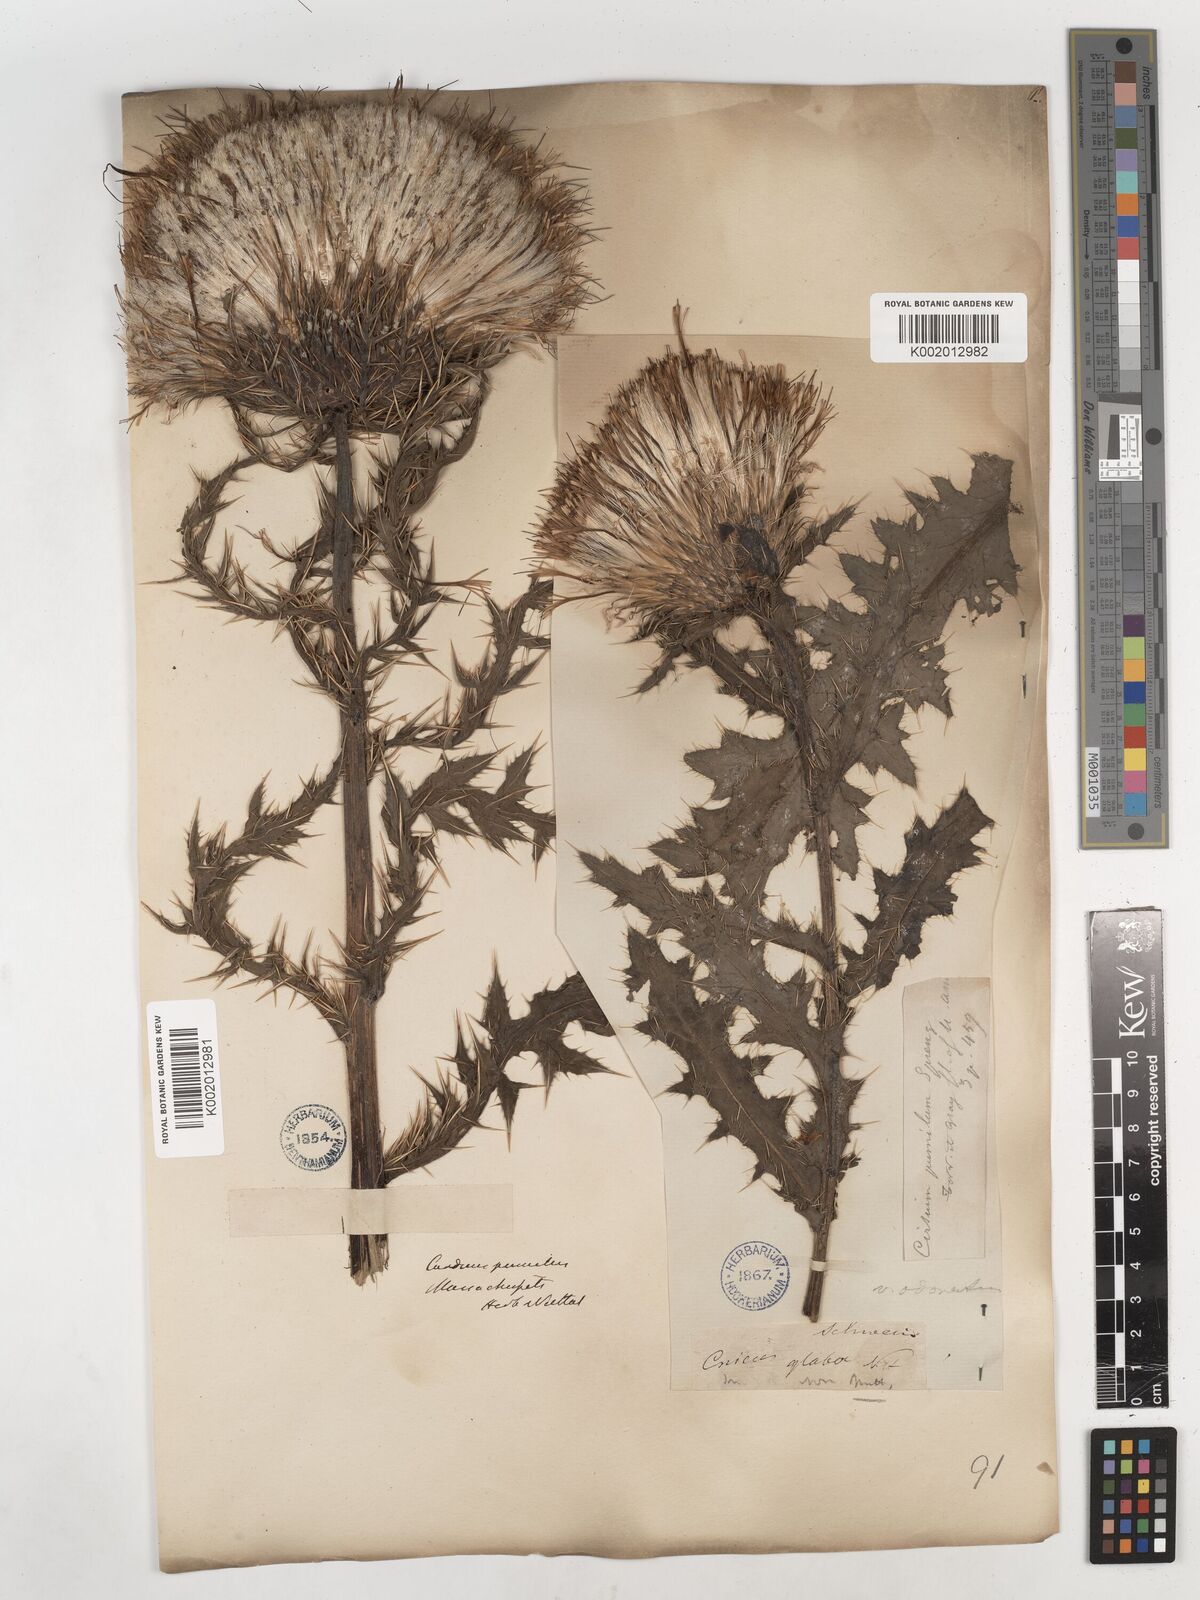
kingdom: Plantae
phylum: Tracheophyta
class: Magnoliopsida
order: Asterales
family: Asteraceae
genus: Cirsium
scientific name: Cirsium pumilum
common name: Pasture thistle
